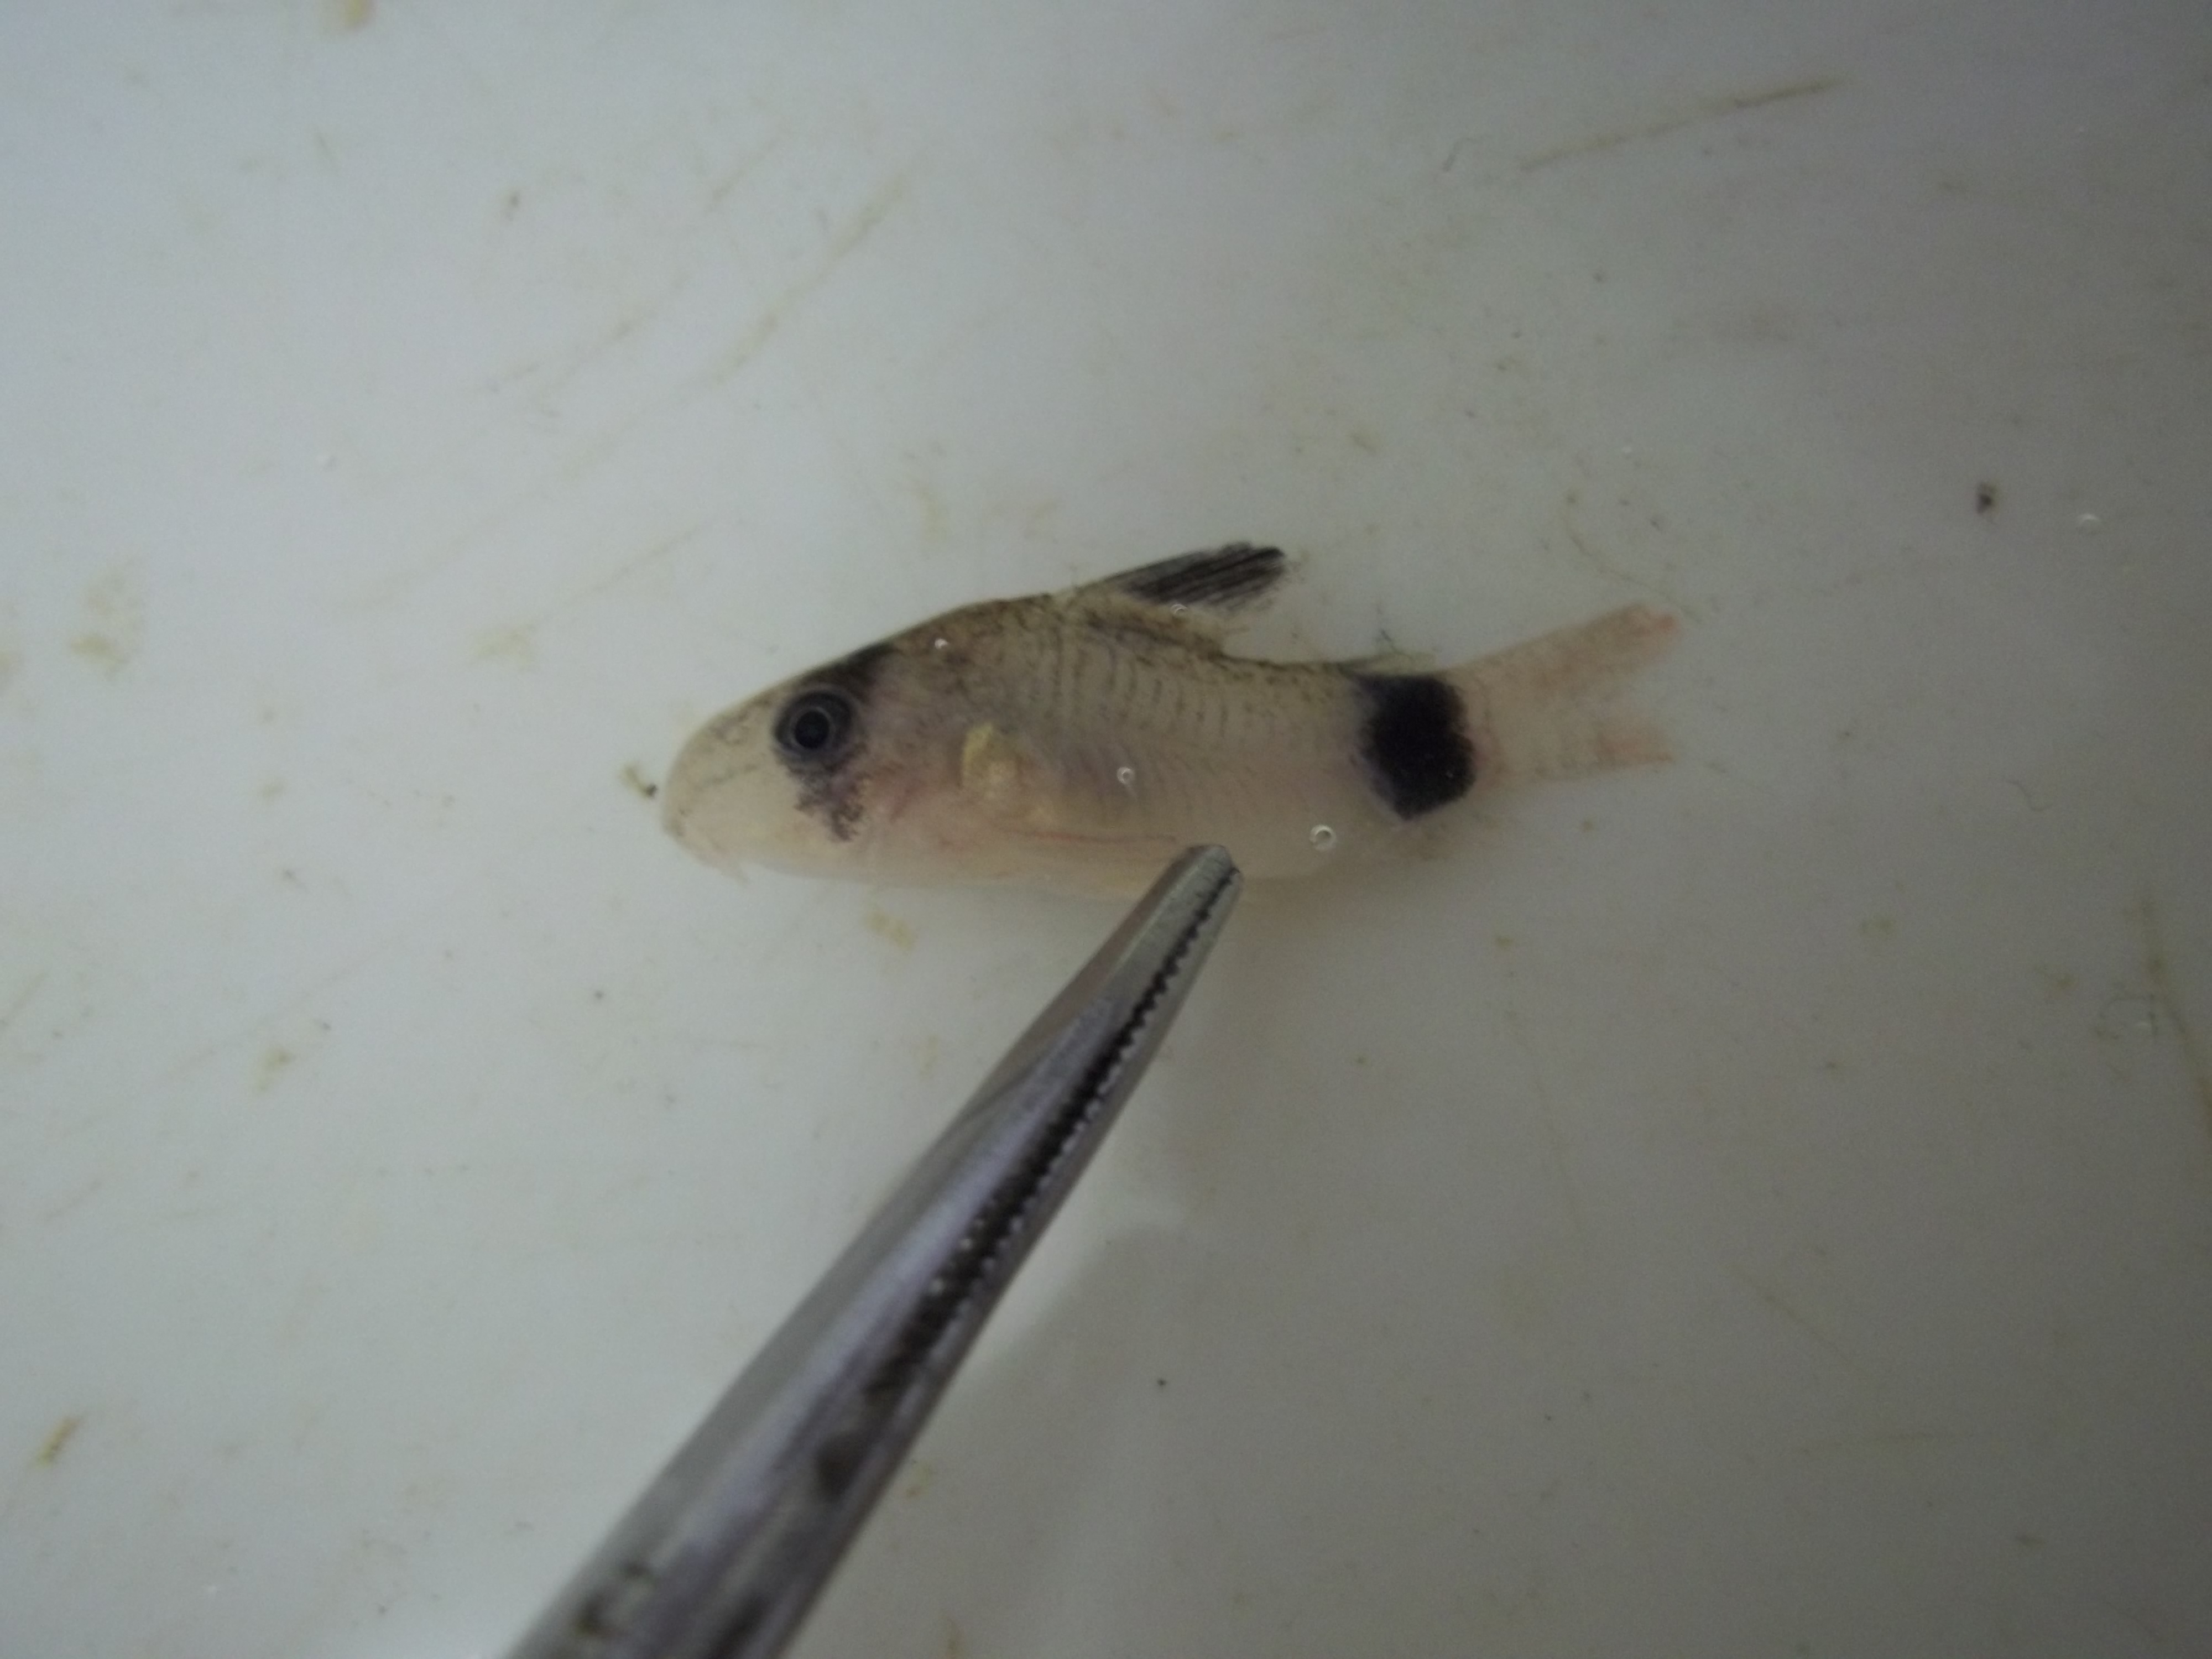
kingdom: Animalia
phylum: Chordata
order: Siluriformes
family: Callichthyidae
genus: Corydoras
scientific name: Corydoras panda
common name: Panda
